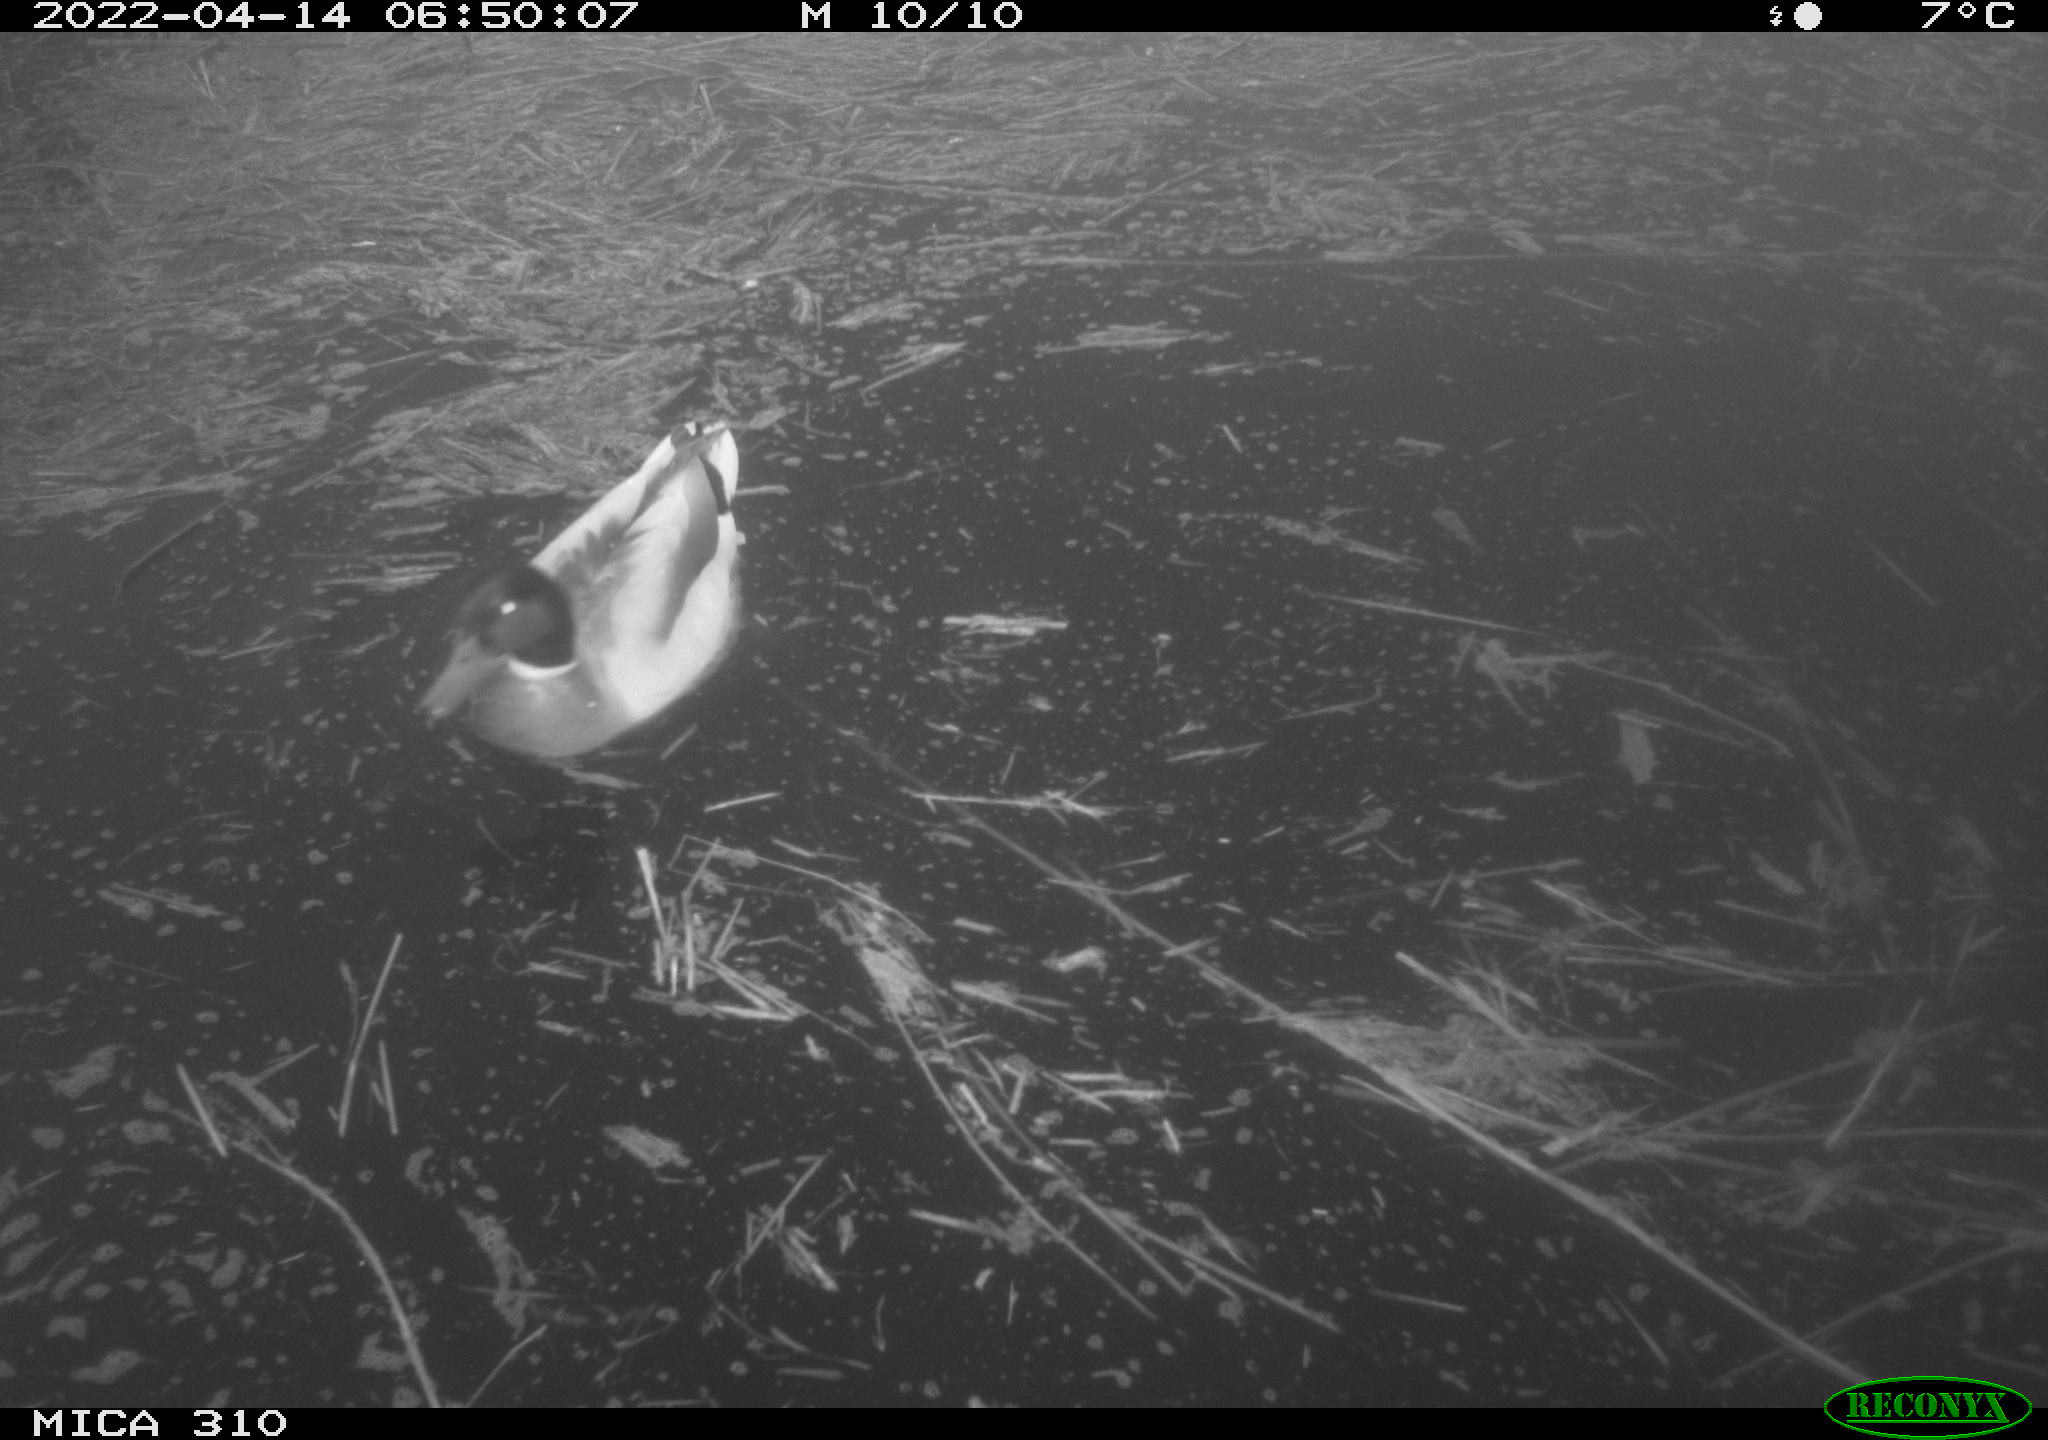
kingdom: Animalia
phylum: Chordata
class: Aves
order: Gruiformes
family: Rallidae
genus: Gallinula
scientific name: Gallinula chloropus
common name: Common moorhen
